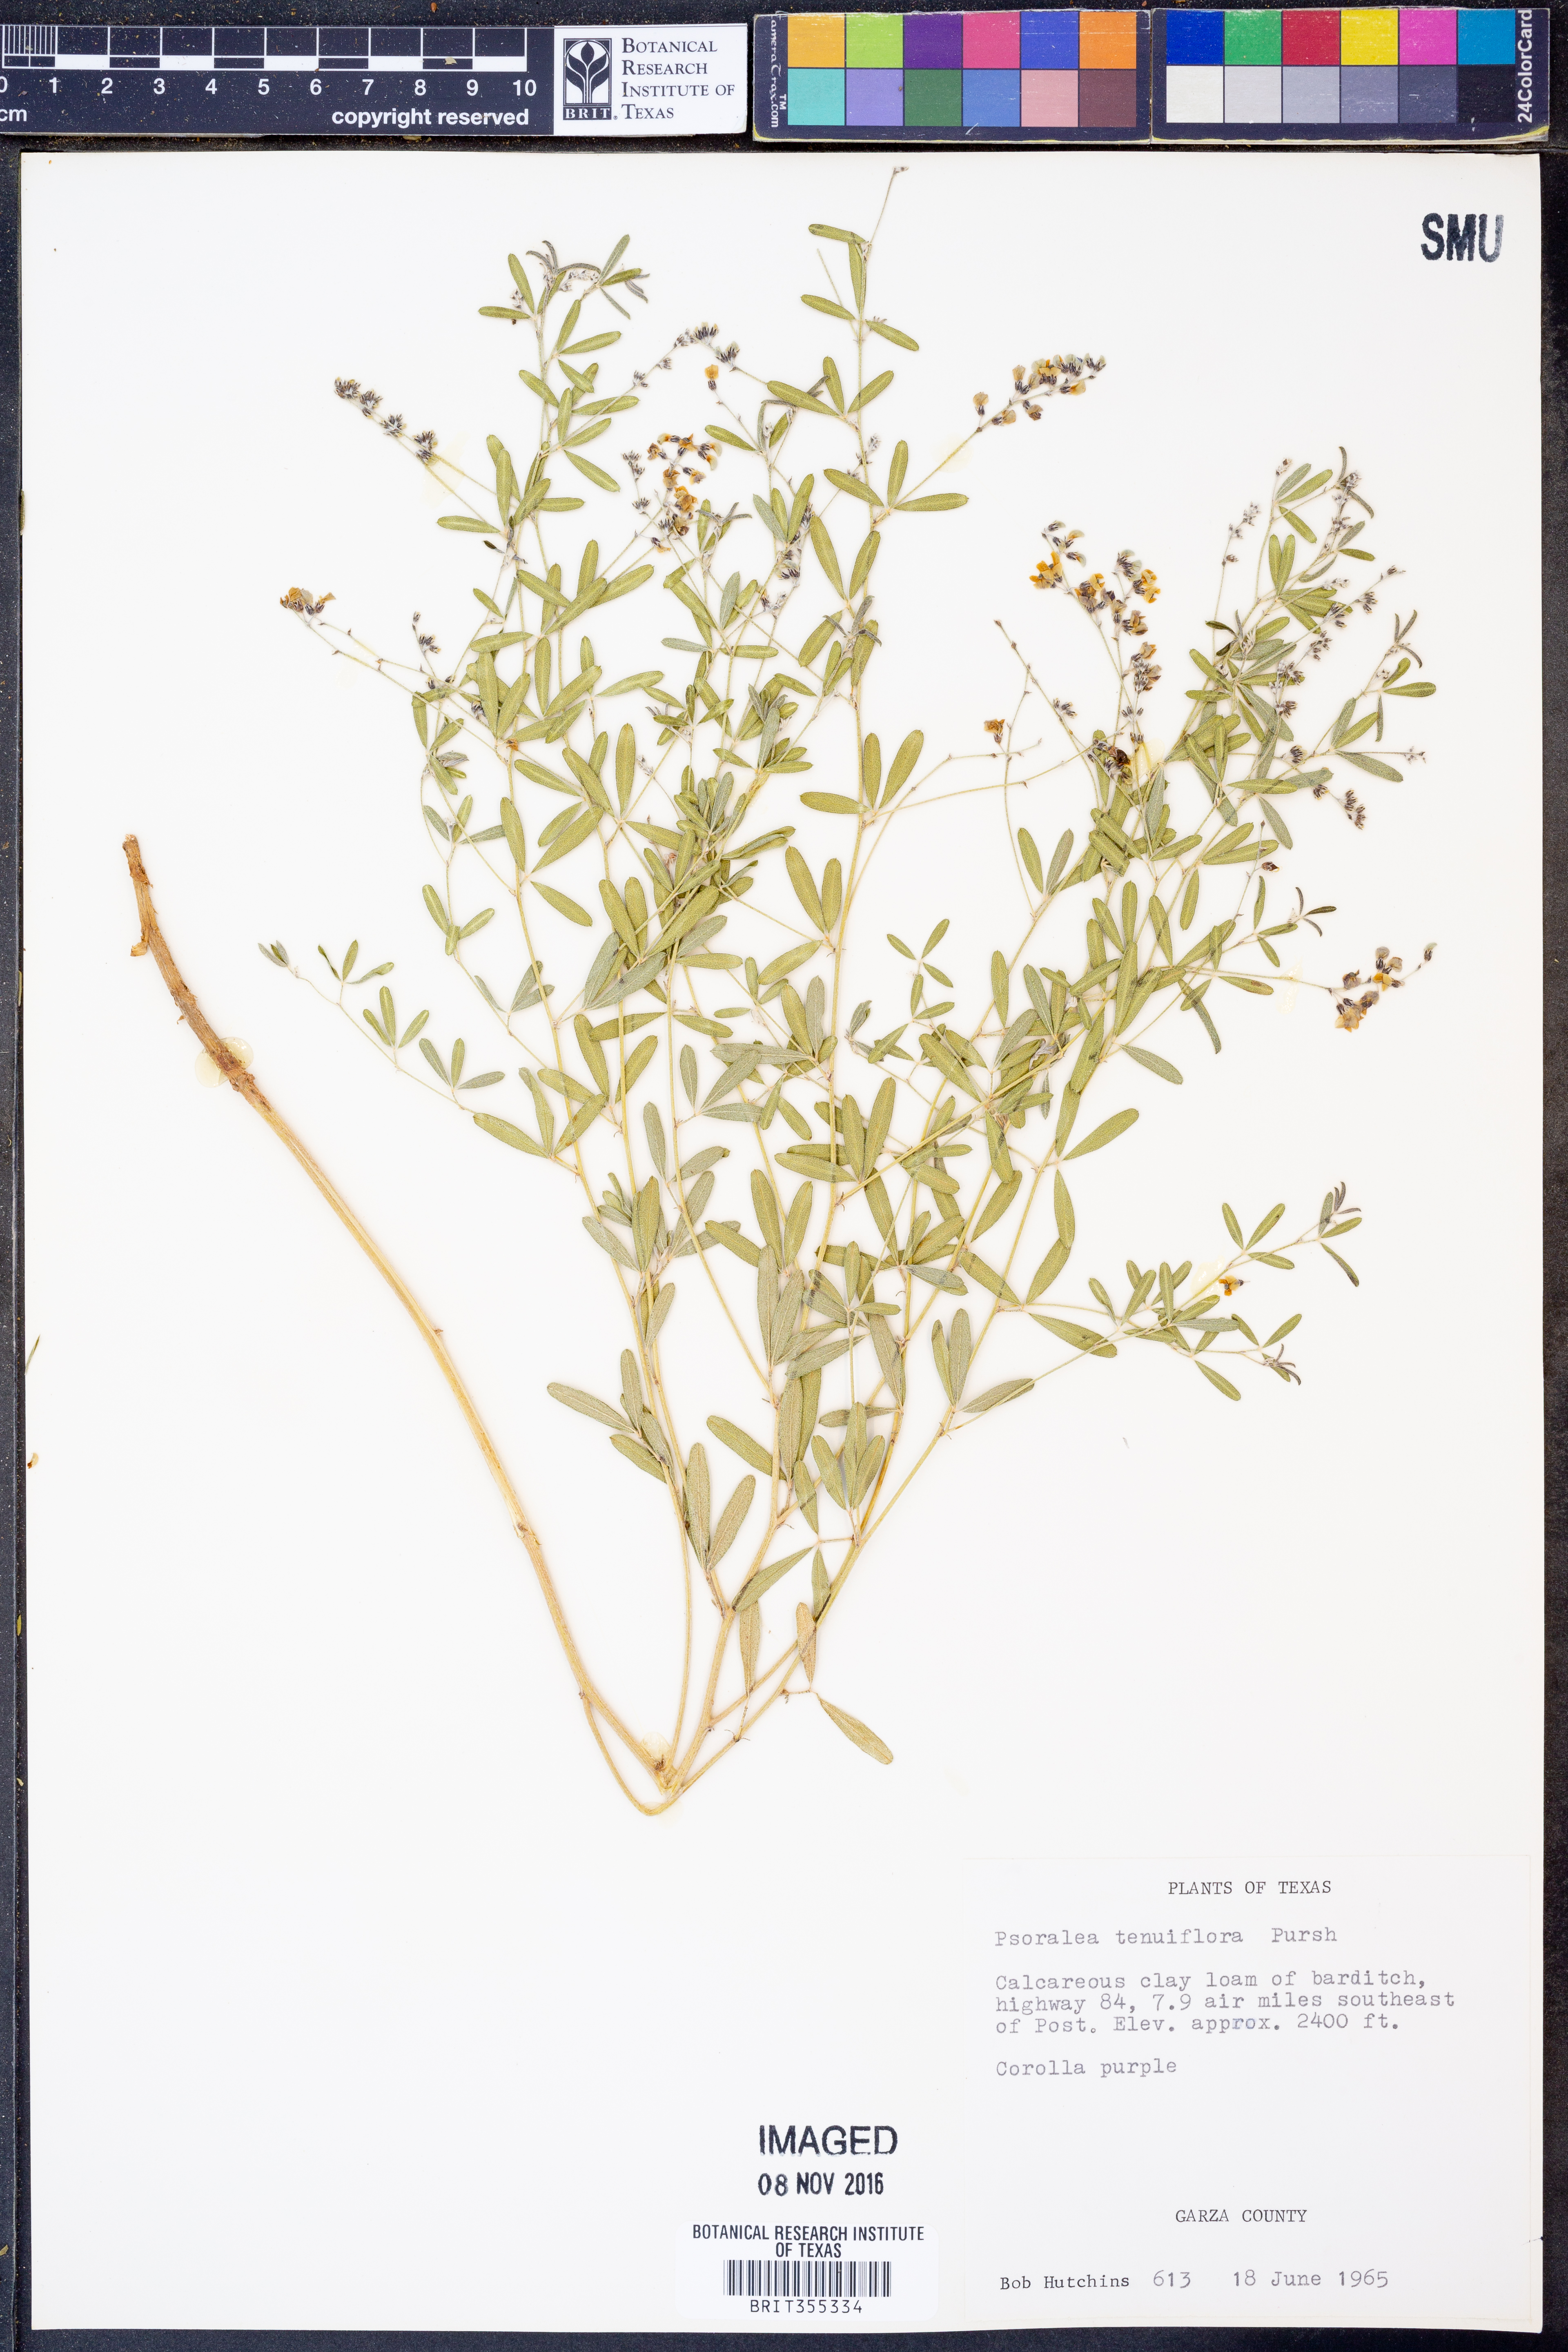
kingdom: Plantae
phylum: Tracheophyta
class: Magnoliopsida
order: Fabales
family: Fabaceae
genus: Pediomelum
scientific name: Pediomelum tenuiflorum
